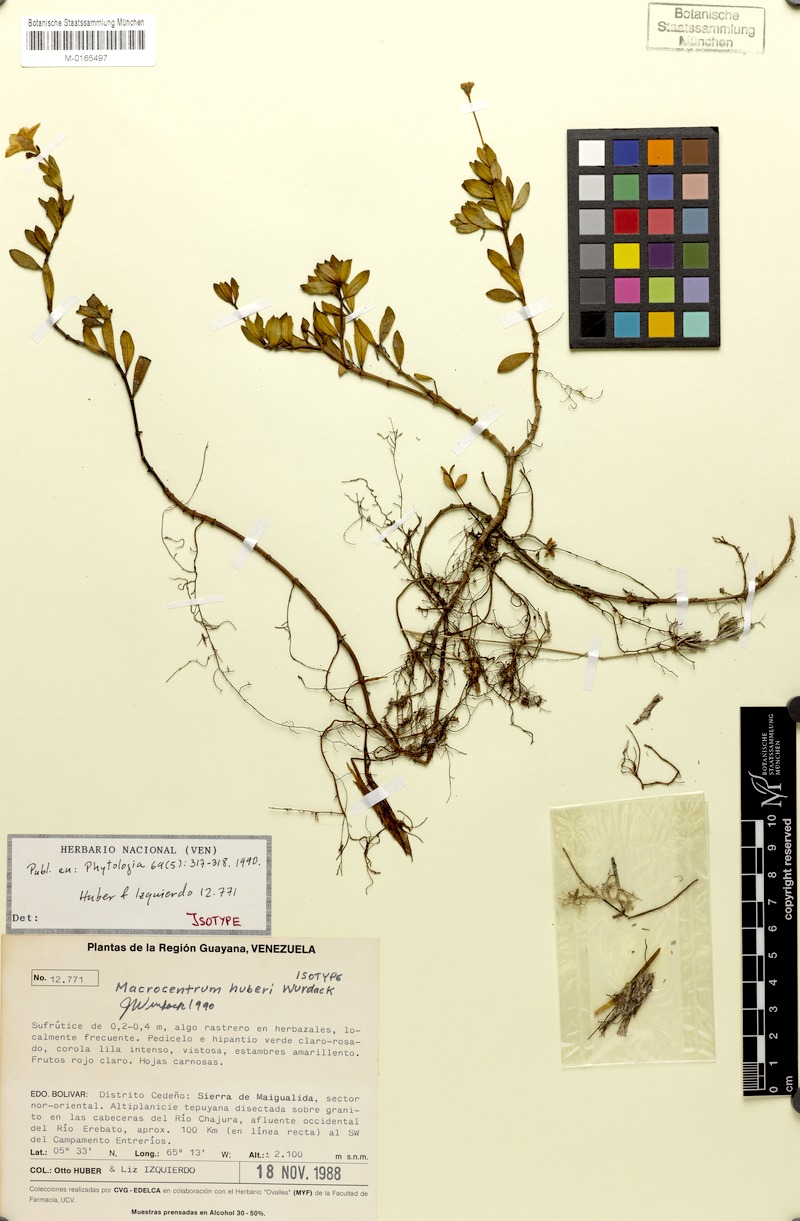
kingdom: Plantae
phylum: Tracheophyta
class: Magnoliopsida
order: Myrtales
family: Melastomataceae
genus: Macrocentrum
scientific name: Macrocentrum huberi
